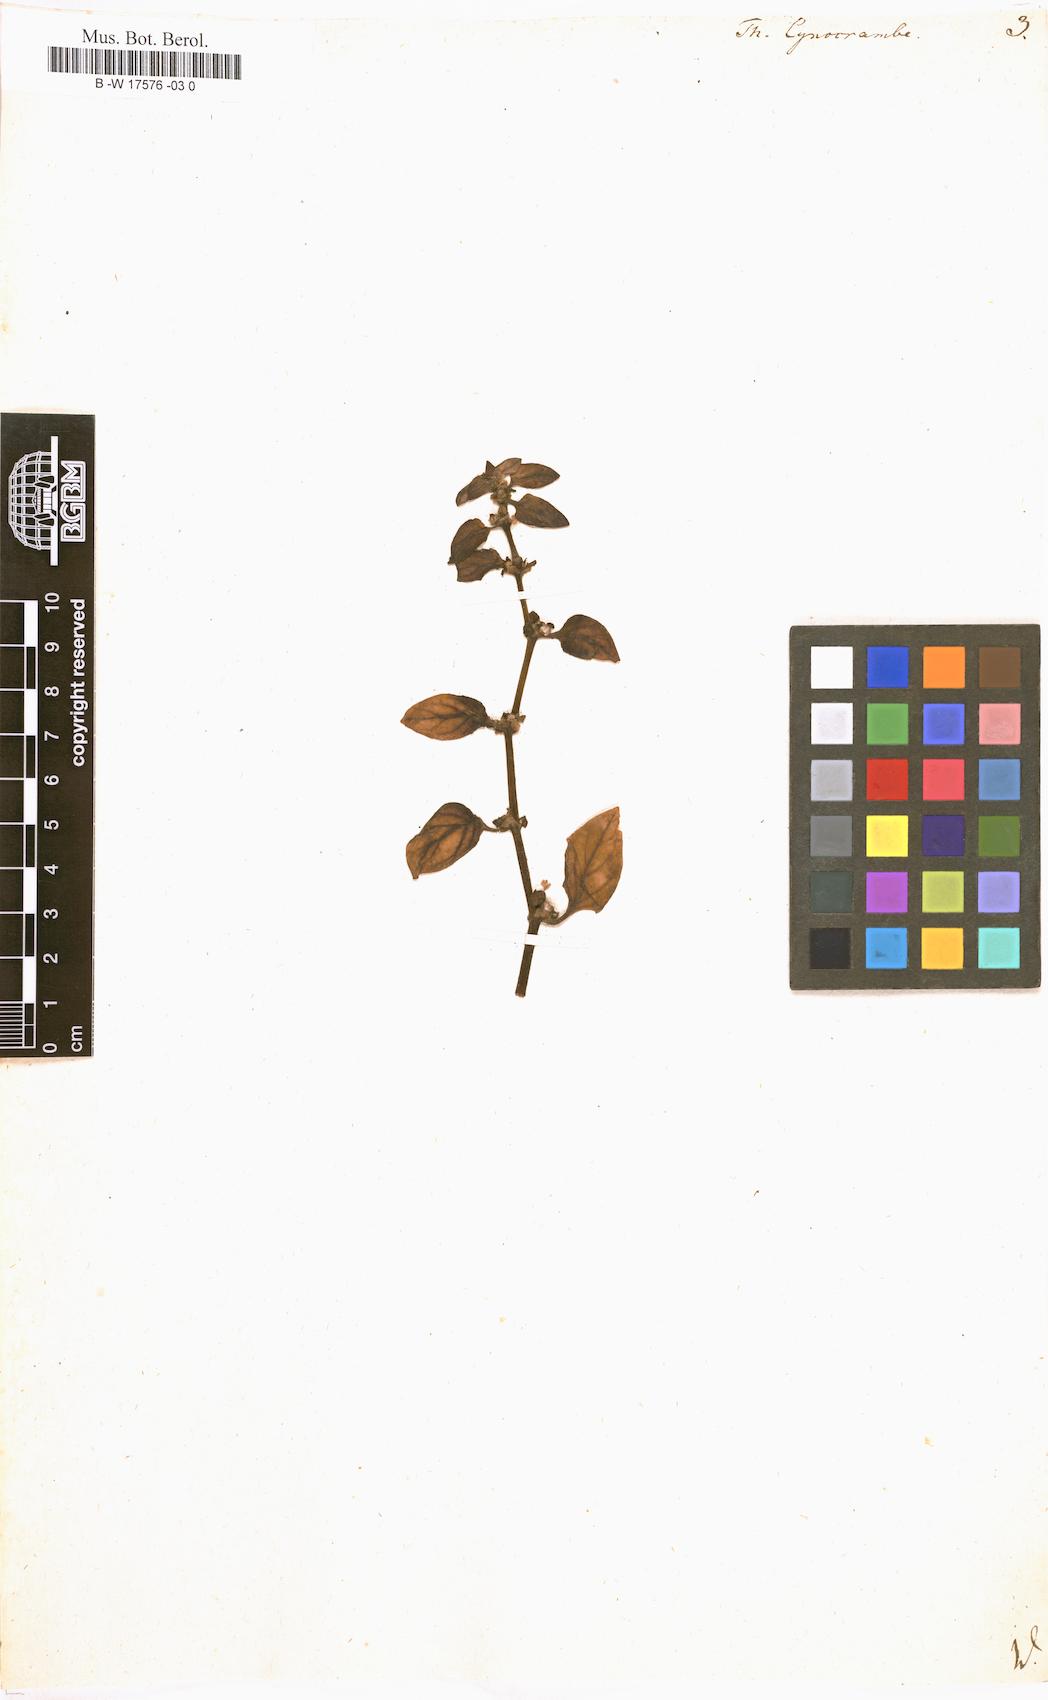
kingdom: Plantae
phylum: Tracheophyta
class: Magnoliopsida
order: Gentianales
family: Rubiaceae
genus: Theligonum
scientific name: Theligonum cynocrambe
